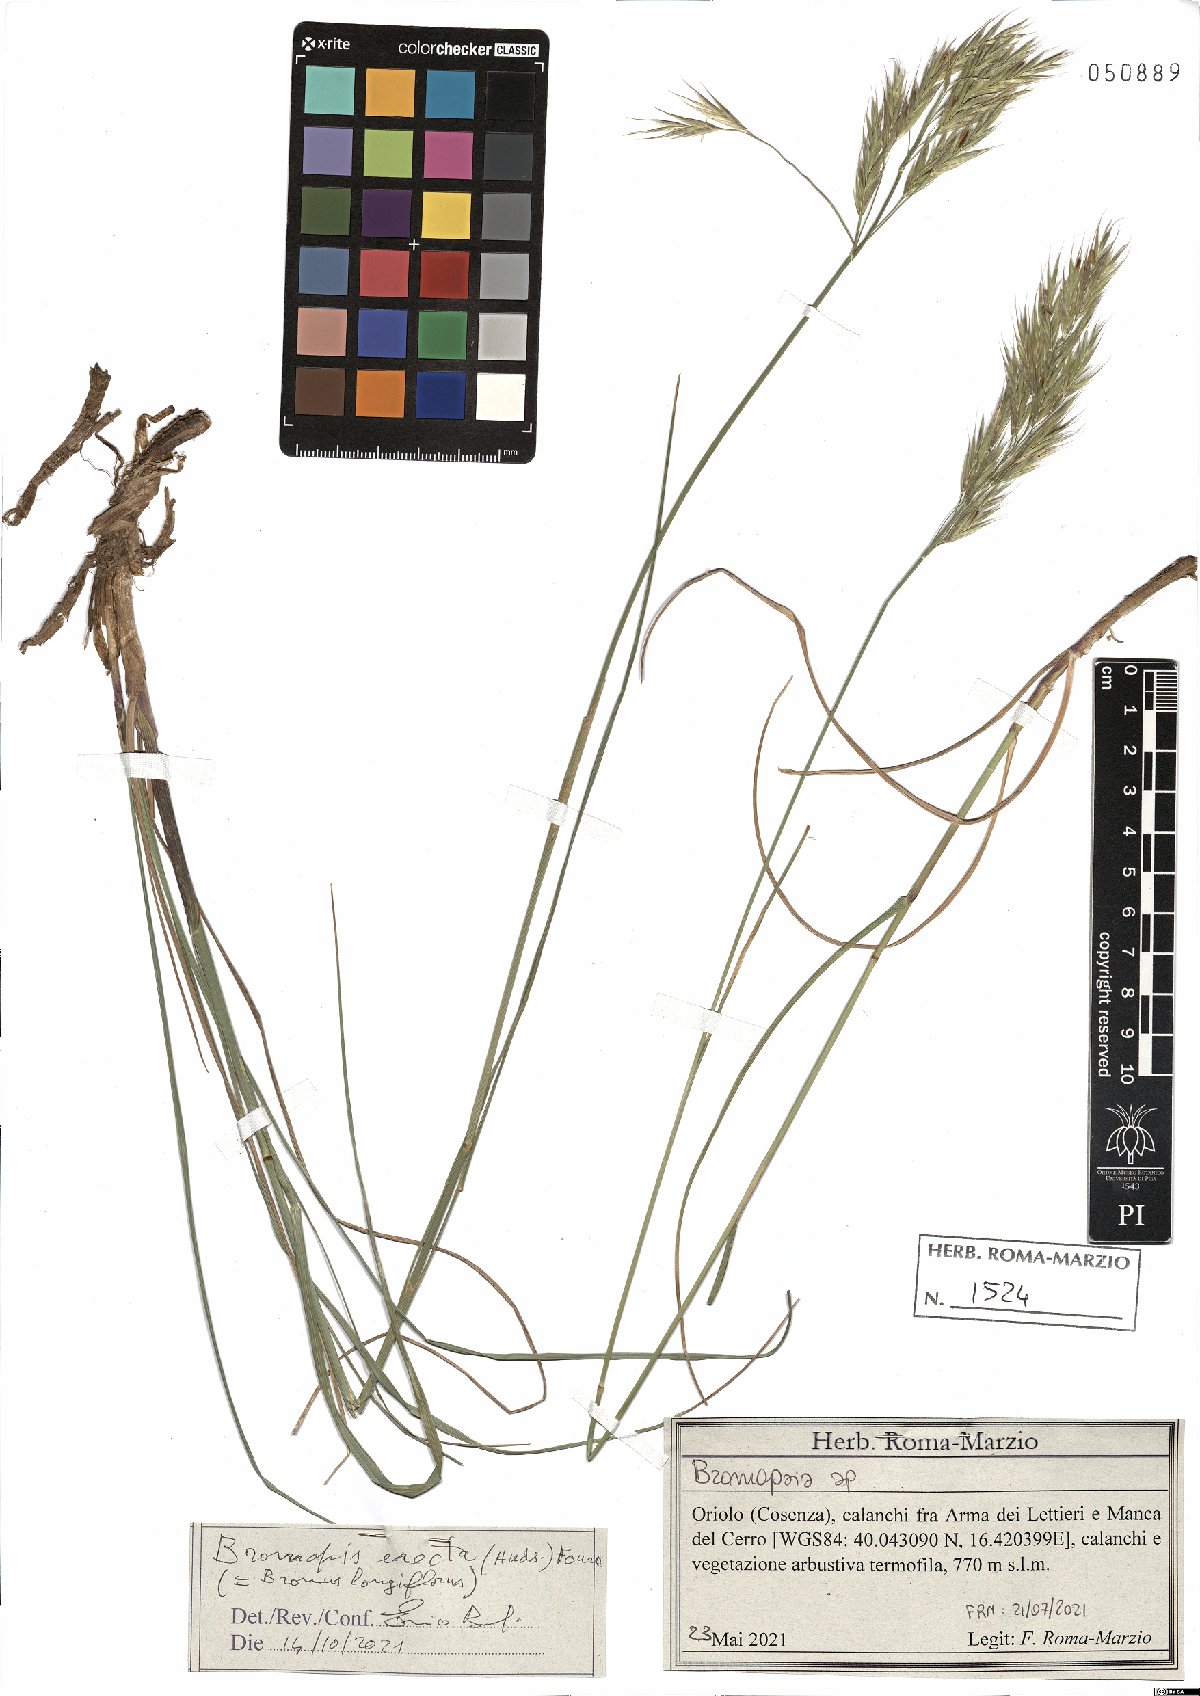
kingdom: Plantae
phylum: Tracheophyta
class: Liliopsida
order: Poales
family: Poaceae
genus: Bromus
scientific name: Bromus erectus
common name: Erect brome
